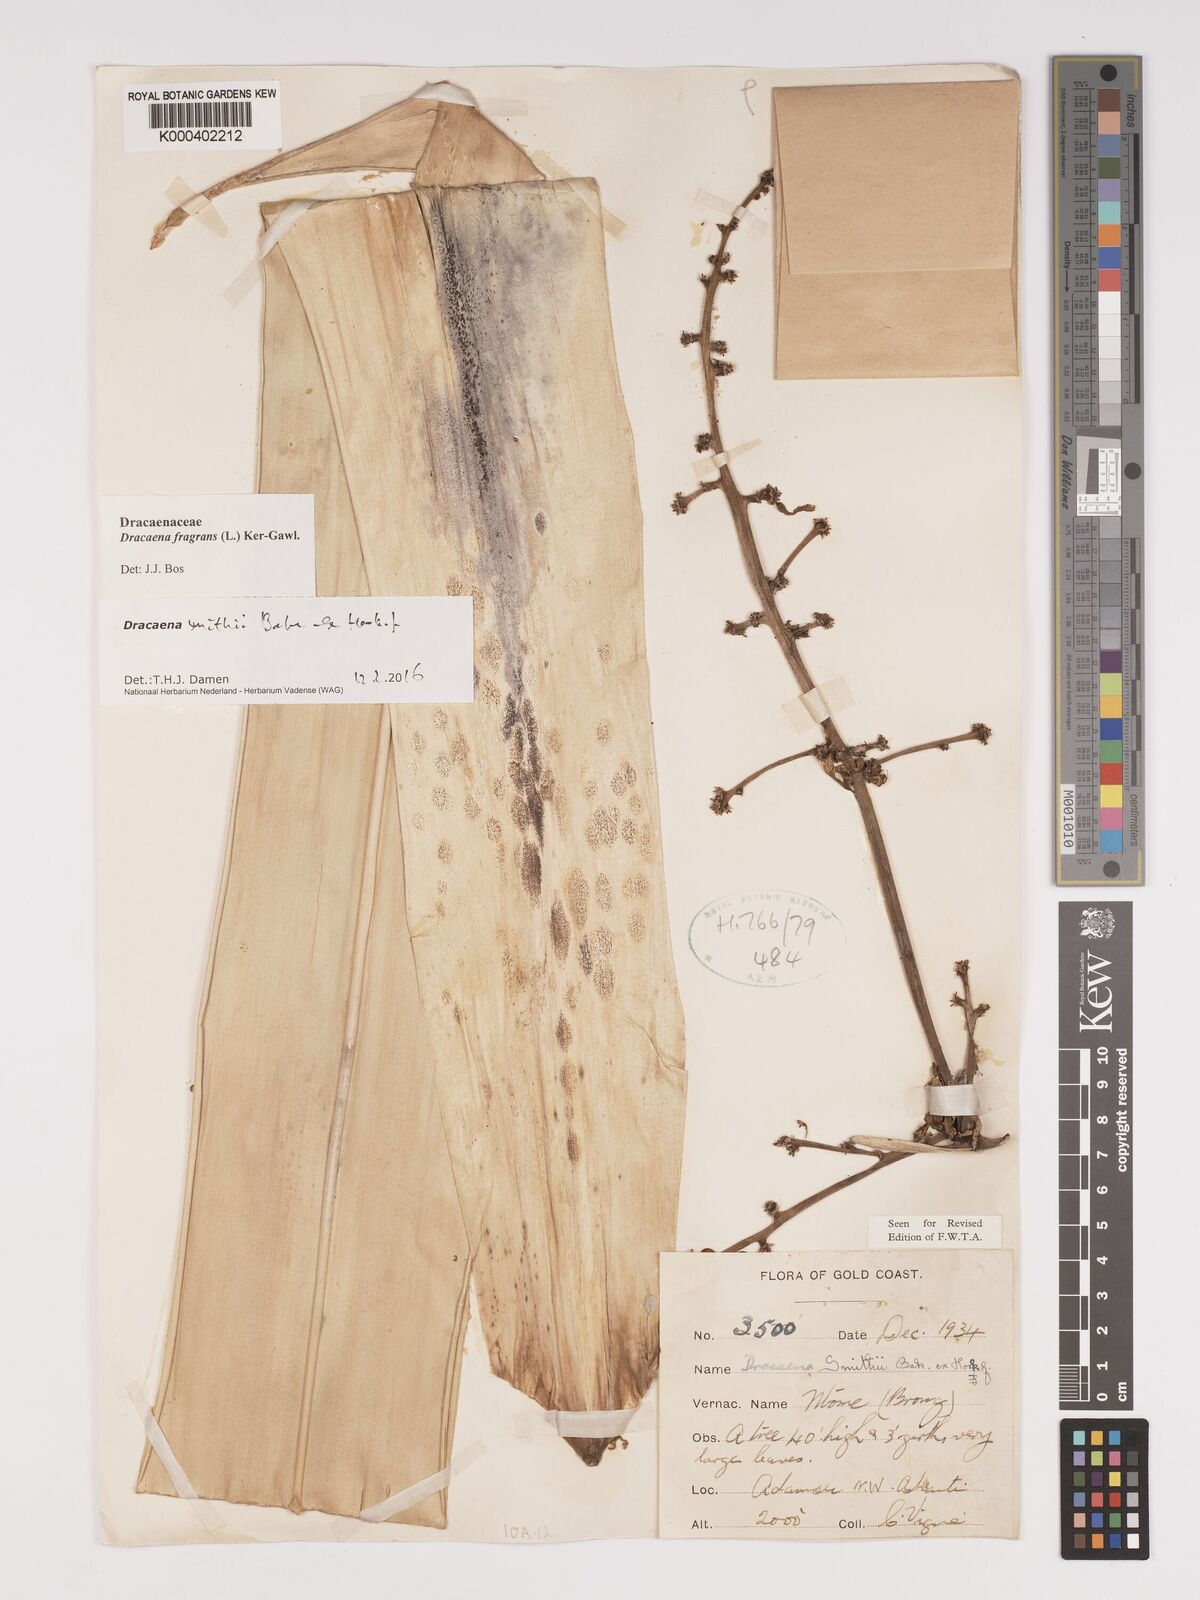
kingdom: Plantae
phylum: Tracheophyta
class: Liliopsida
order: Asparagales
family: Asparagaceae
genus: Dracaena
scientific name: Dracaena fragrans
